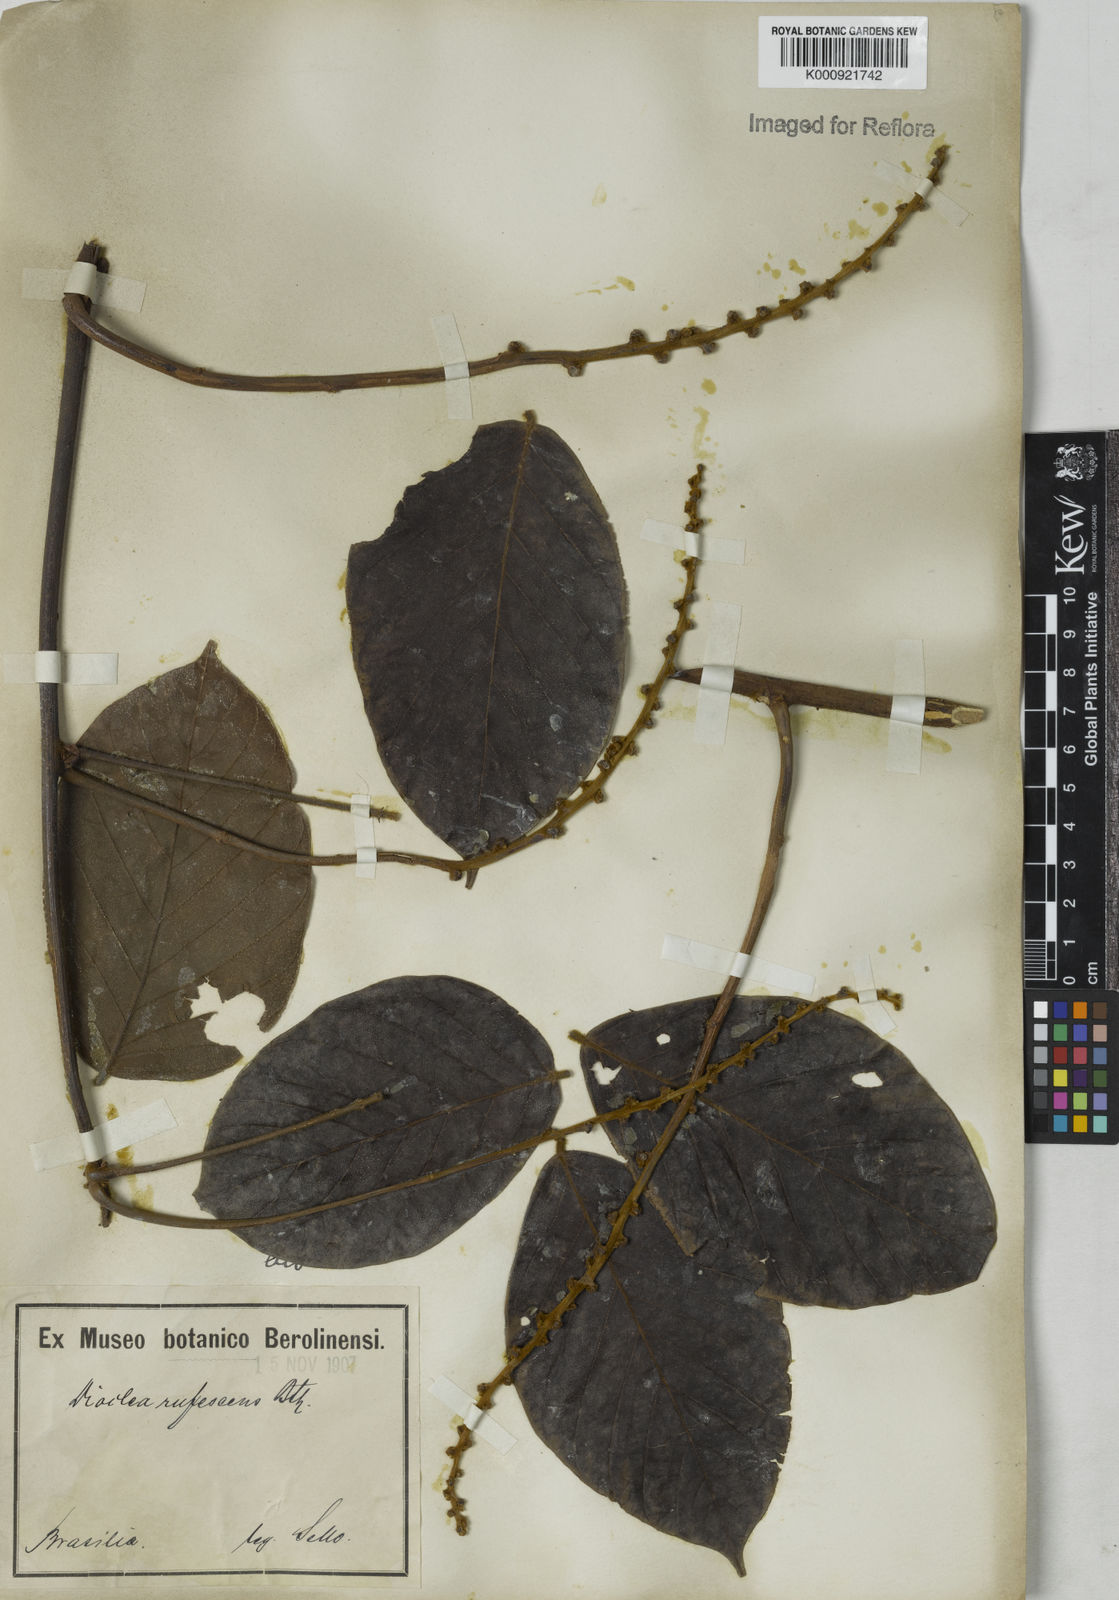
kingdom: Plantae
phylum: Tracheophyta
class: Magnoliopsida
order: Fabales
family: Fabaceae
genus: Macropsychanthus
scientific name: Macropsychanthus rufescens
